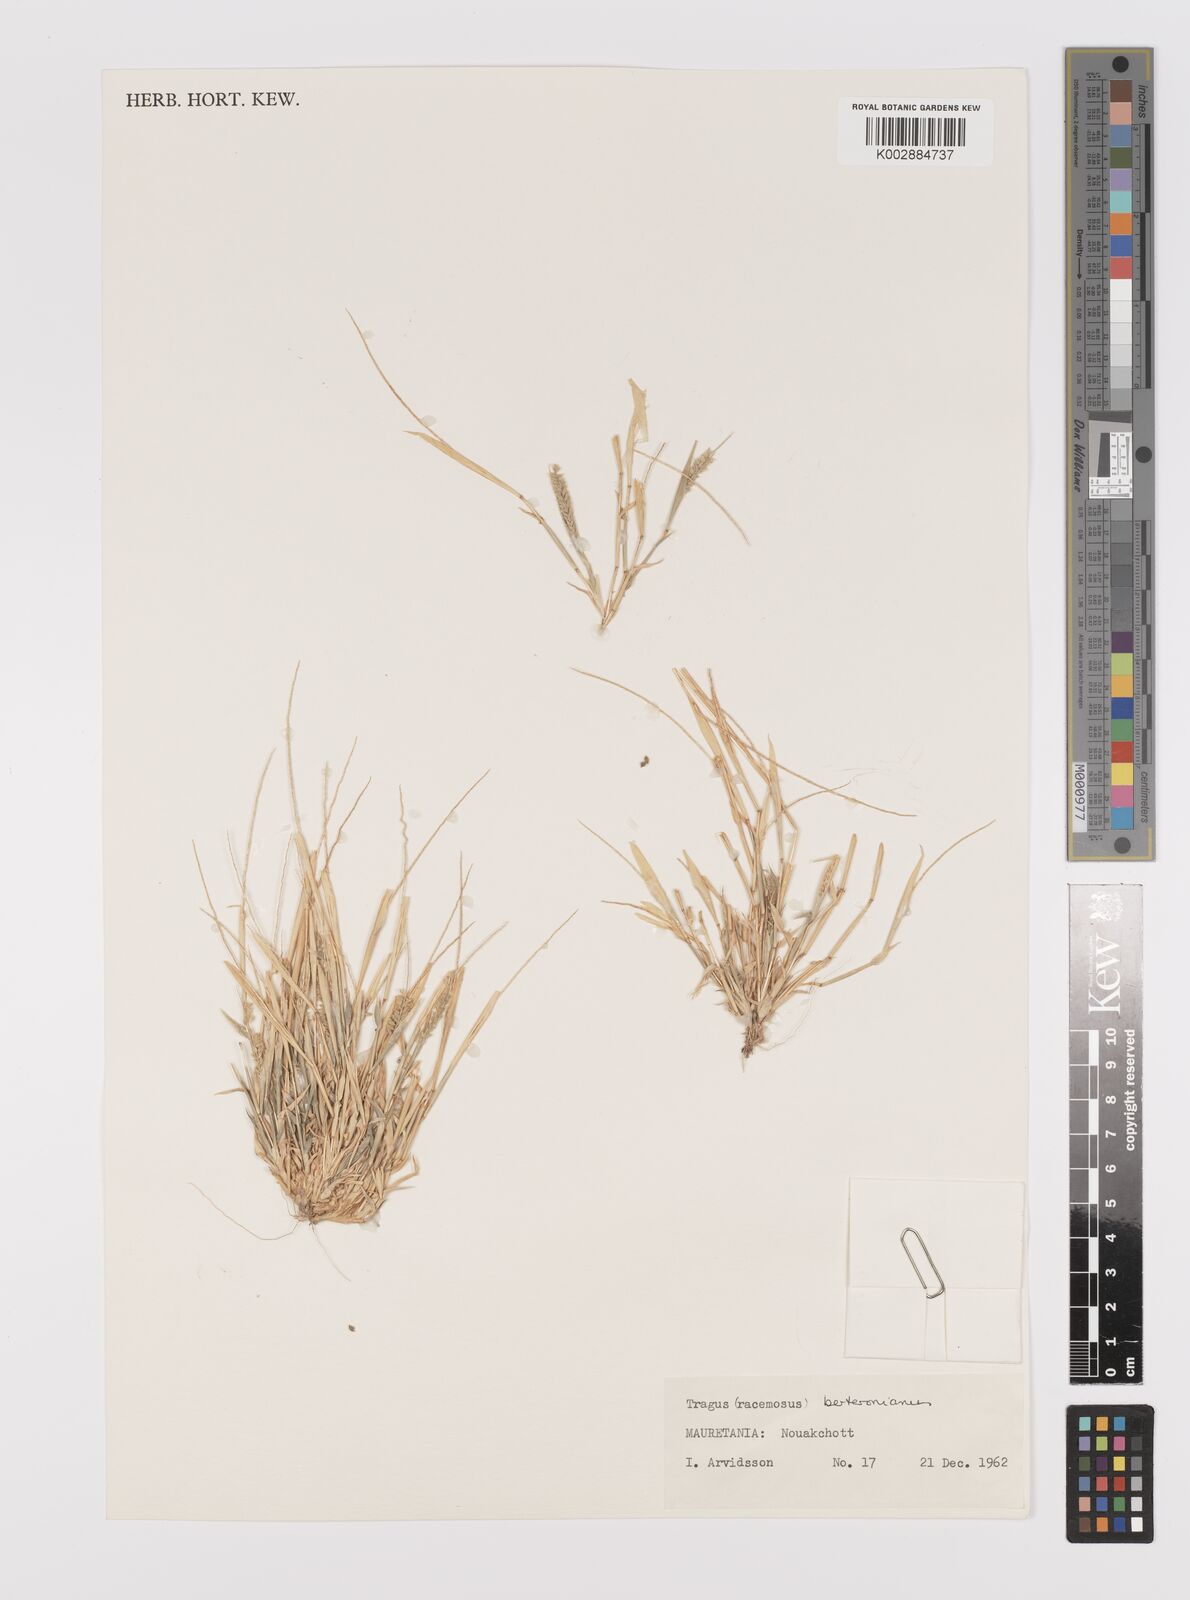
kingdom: Plantae
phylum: Tracheophyta
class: Liliopsida
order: Poales
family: Poaceae
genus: Tragus
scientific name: Tragus berteronianus
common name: African bur-grass
